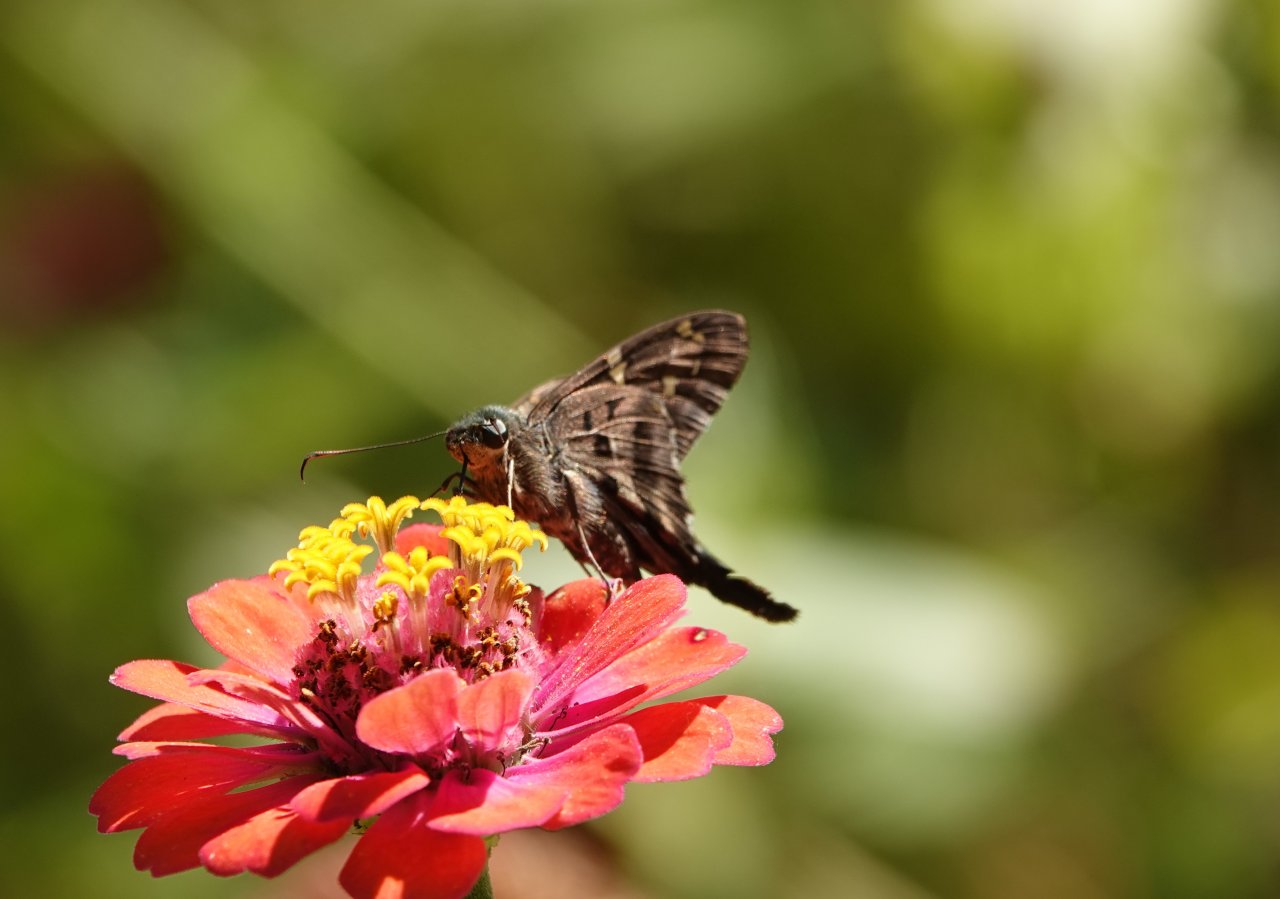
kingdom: Animalia
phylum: Arthropoda
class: Insecta
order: Lepidoptera
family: Hesperiidae
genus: Urbanus
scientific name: Urbanus proteus
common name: Long-tailed Skipper
